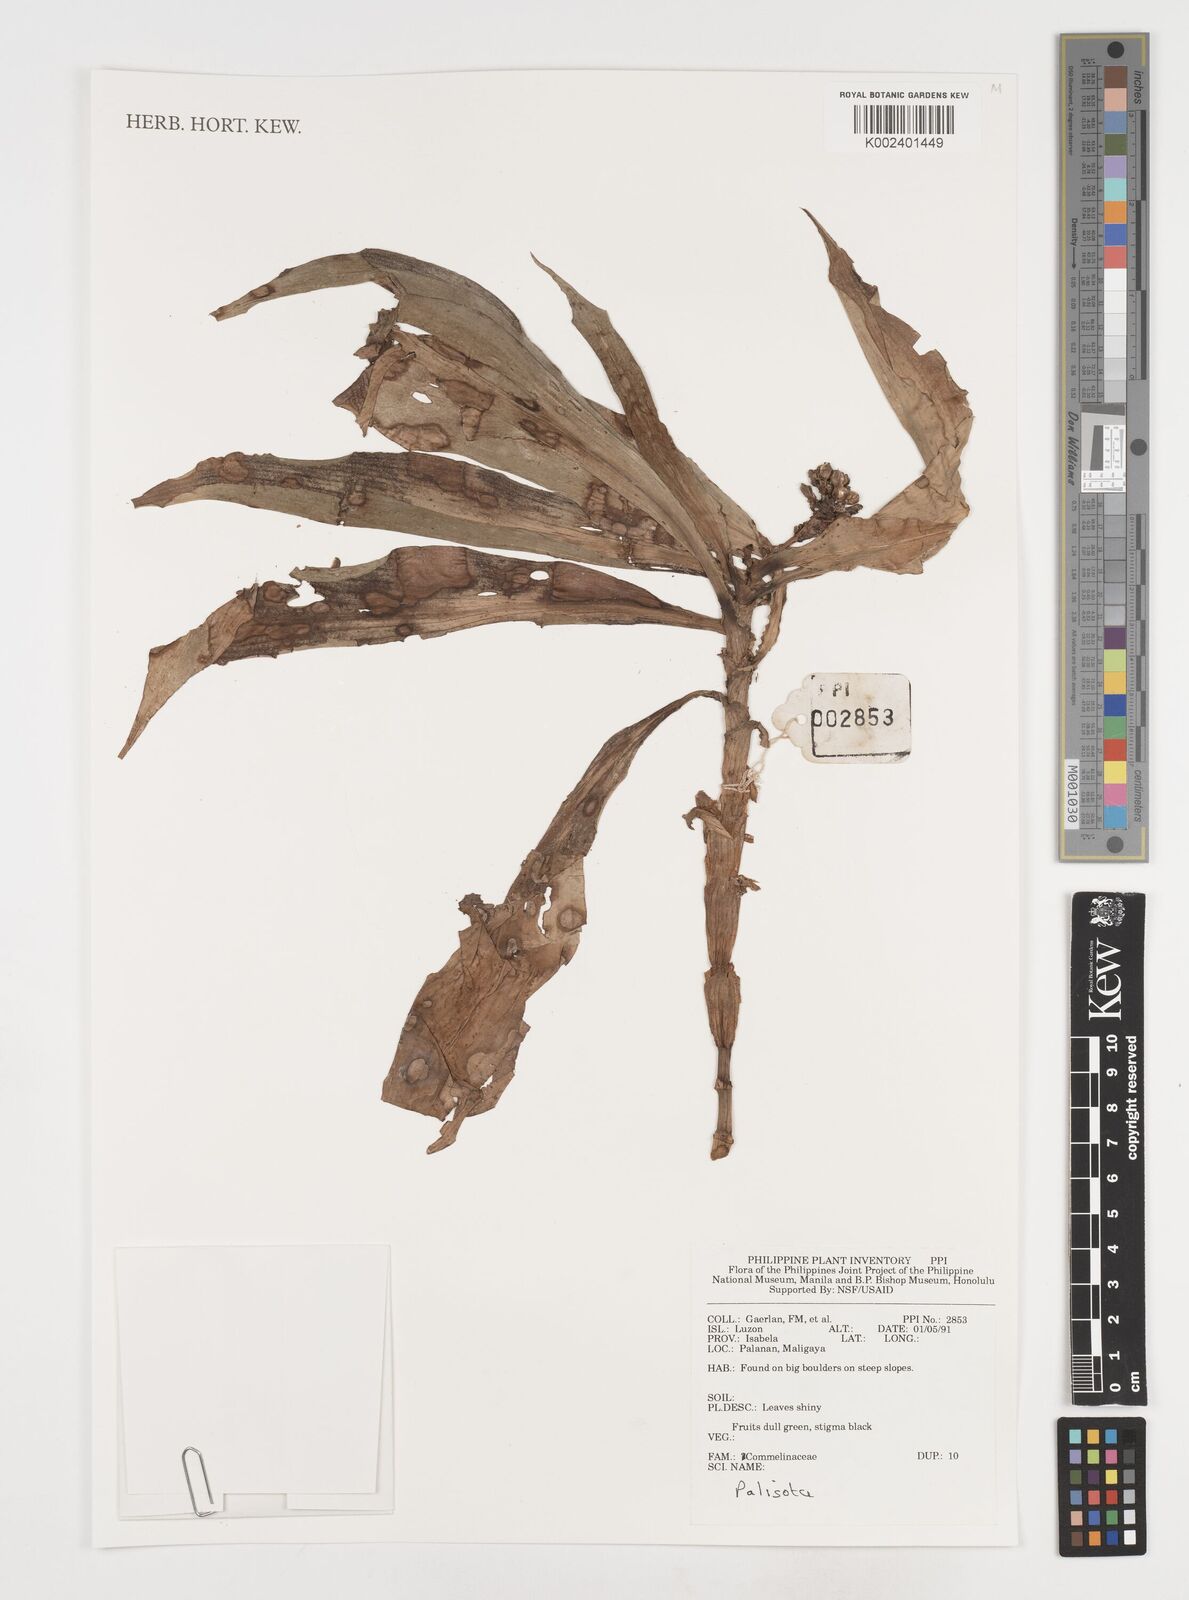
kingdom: Plantae
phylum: Tracheophyta
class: Liliopsida
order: Commelinales
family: Commelinaceae
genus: Pollia
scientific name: Pollia
